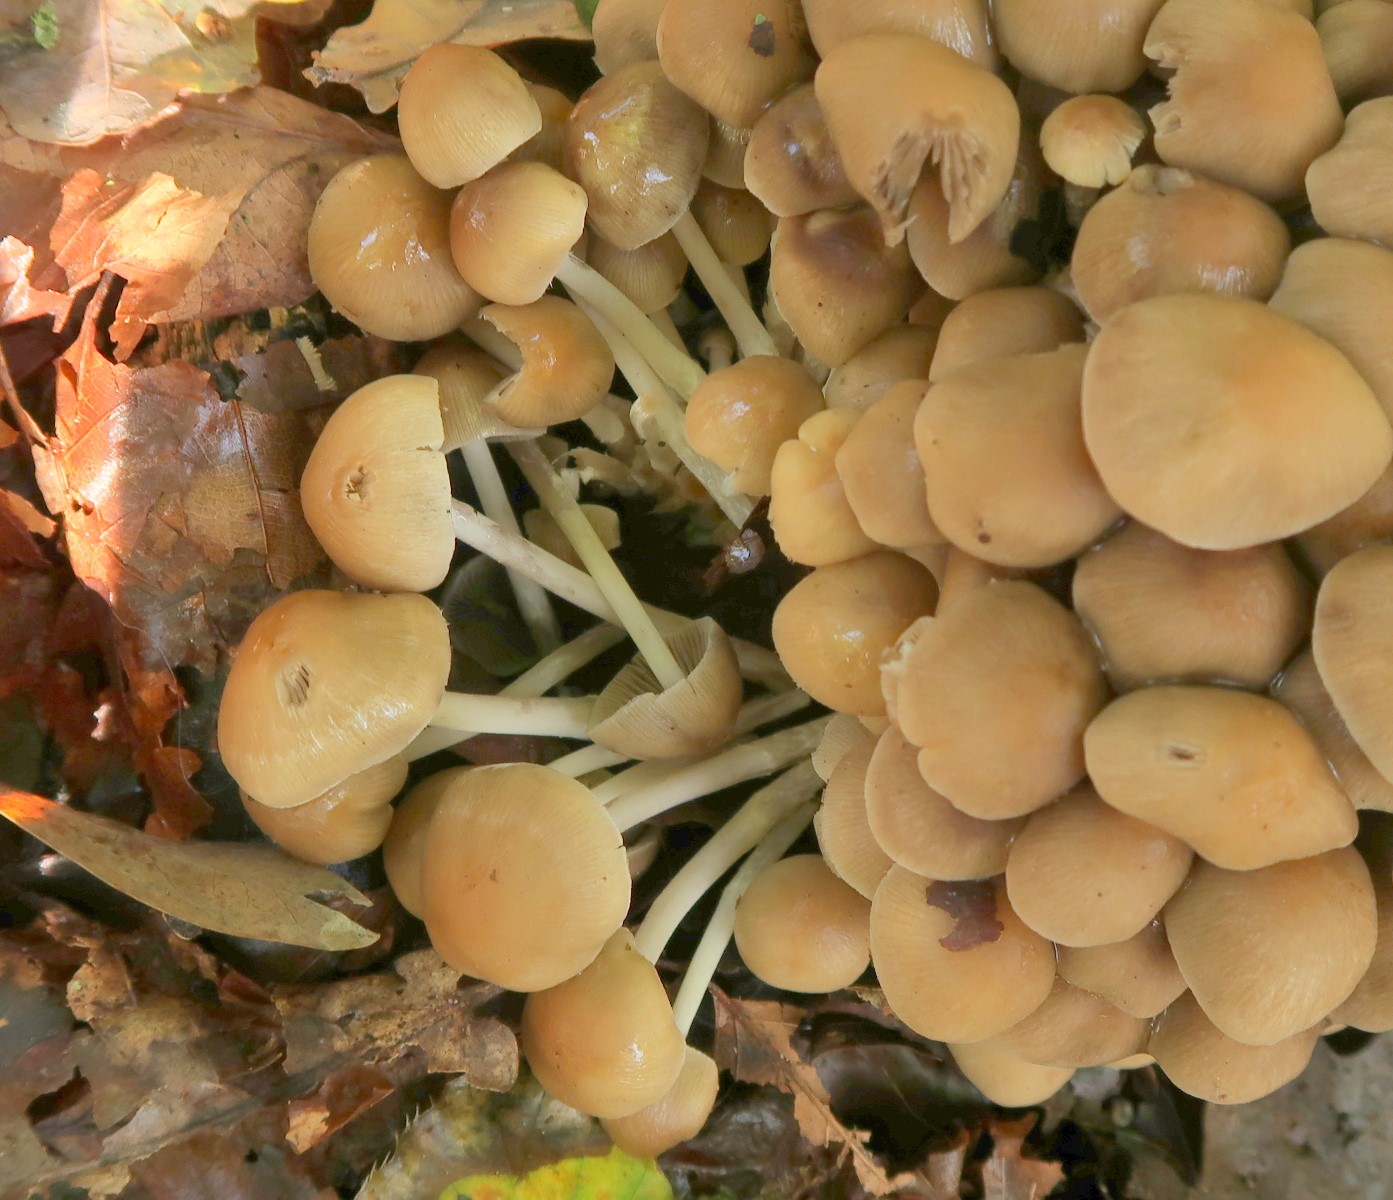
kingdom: Fungi
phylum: Basidiomycota
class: Agaricomycetes
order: Agaricales
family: Psathyrellaceae
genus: Britzelmayria
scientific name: Britzelmayria multipedata
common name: knippe-mørkhat
